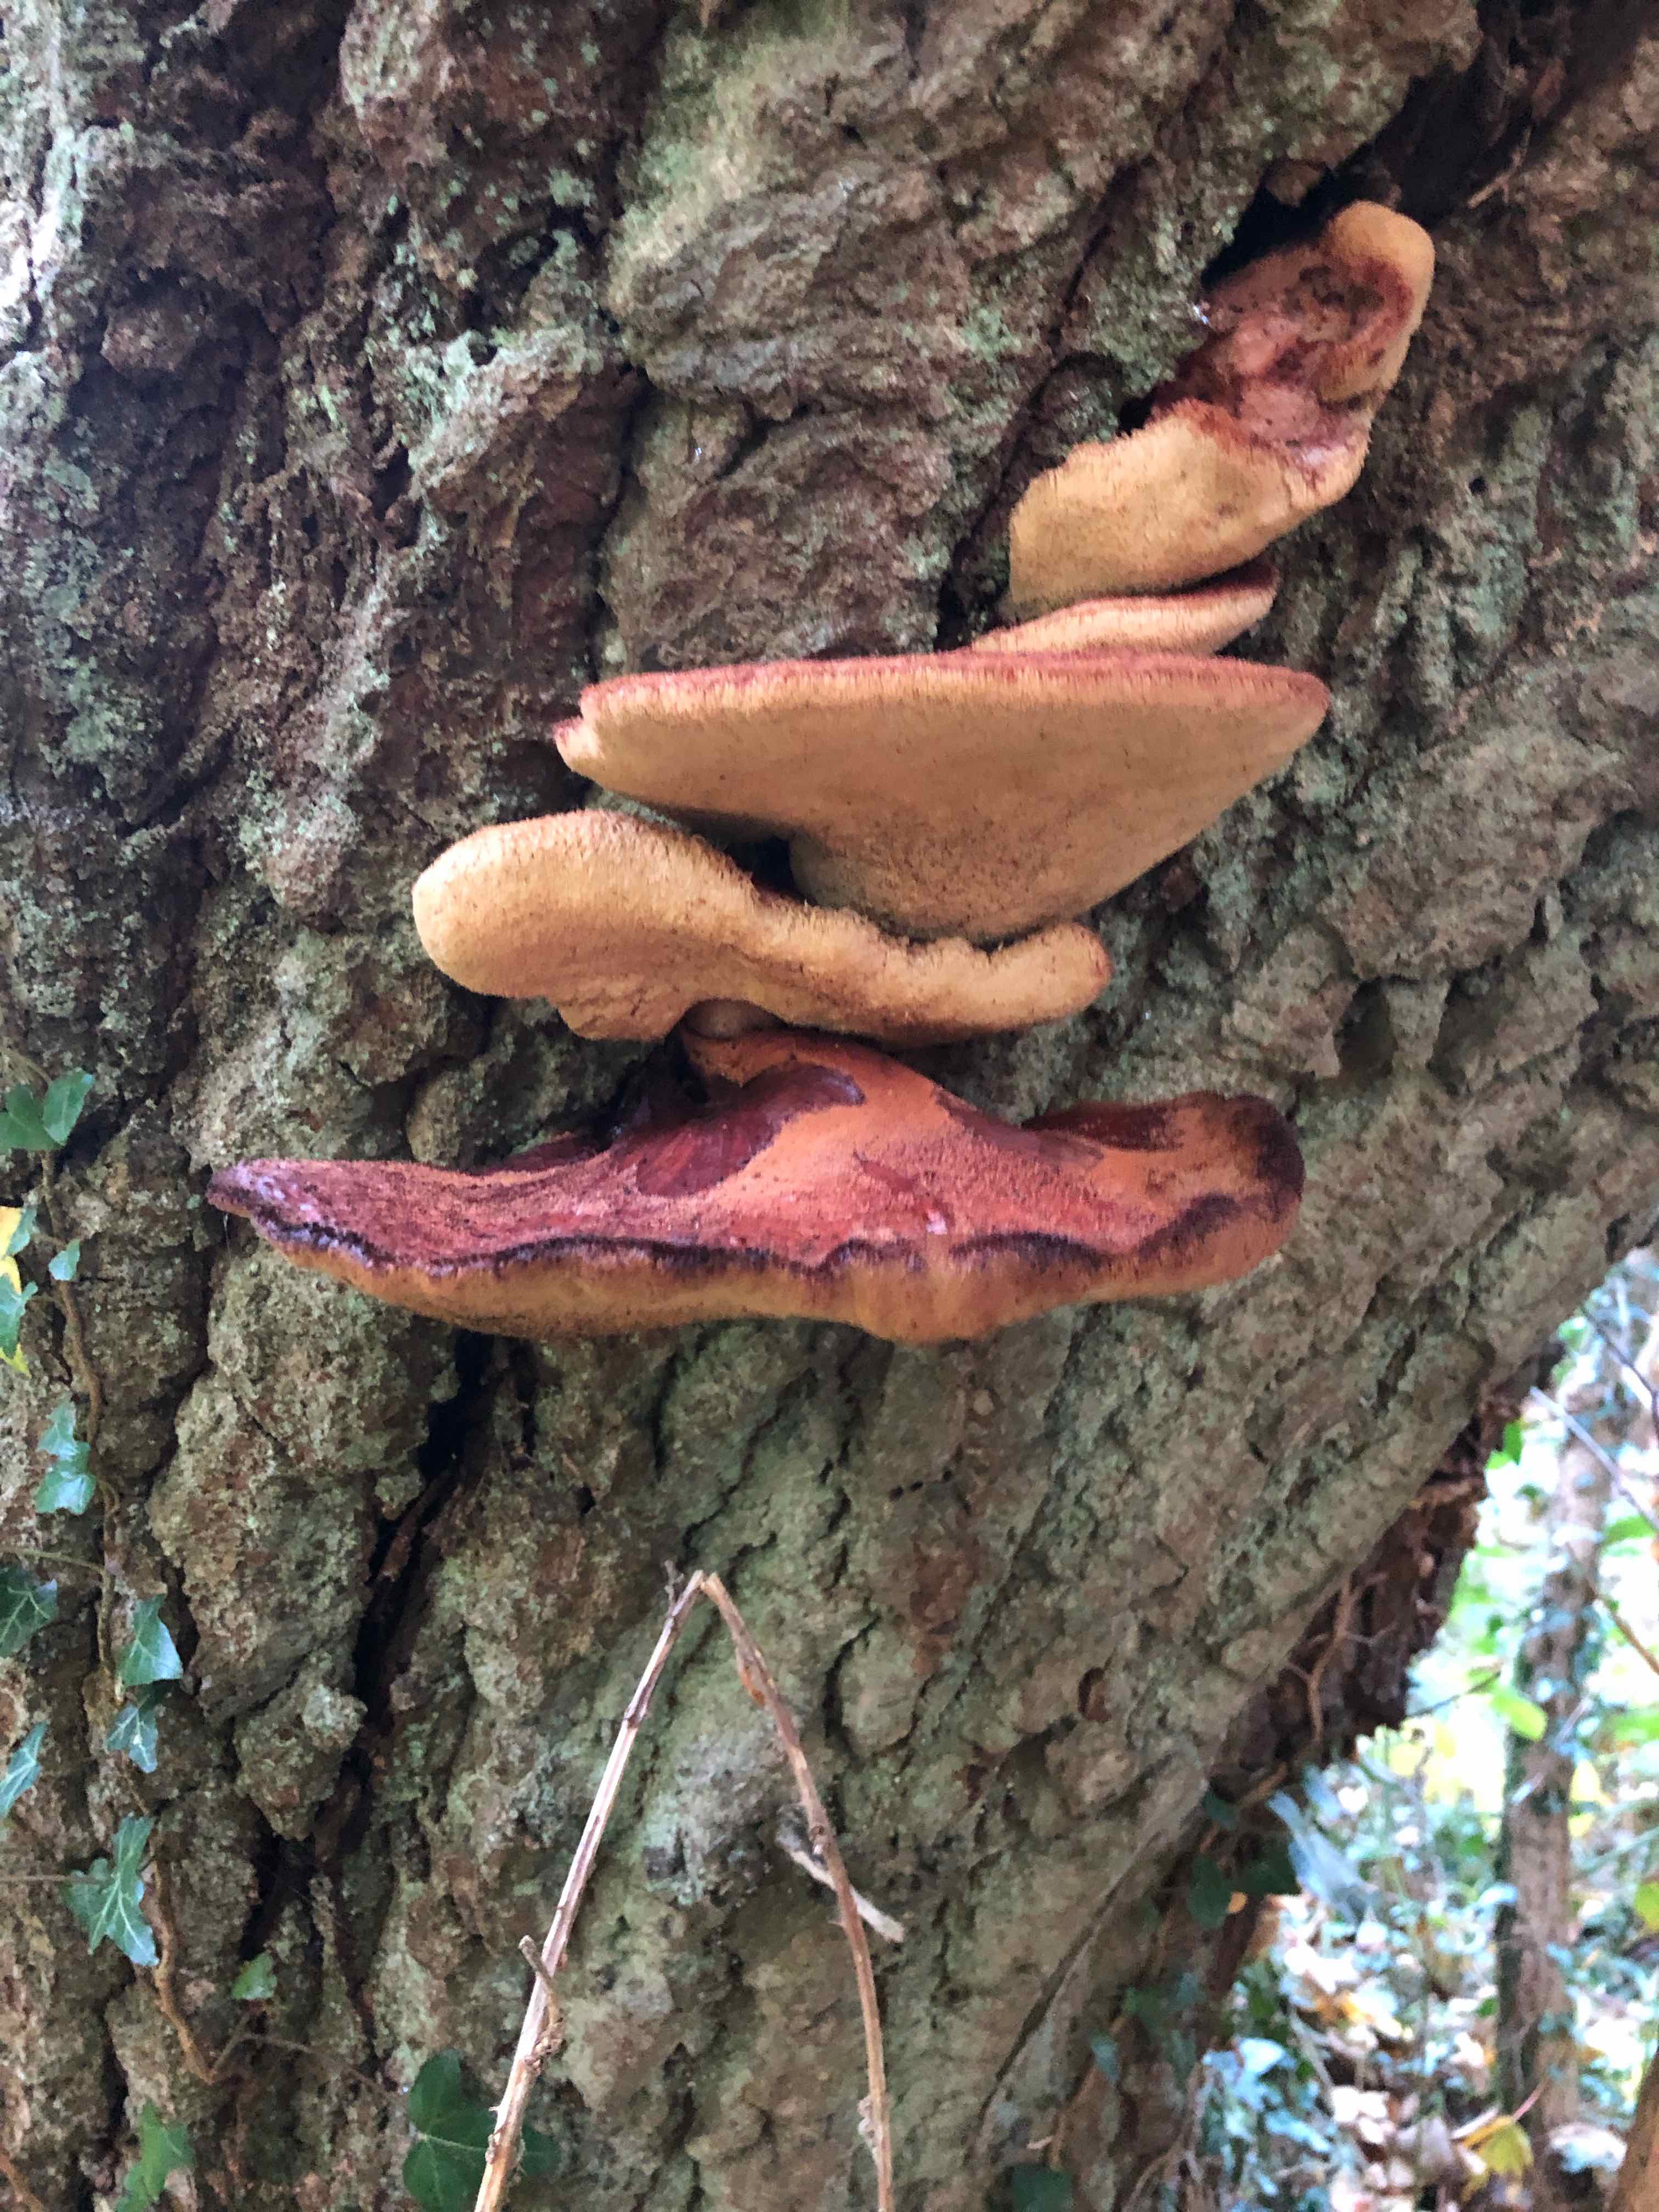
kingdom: Fungi
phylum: Basidiomycota
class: Agaricomycetes
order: Agaricales
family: Fistulinaceae
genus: Fistulina
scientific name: Fistulina hepatica
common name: oksetunge
